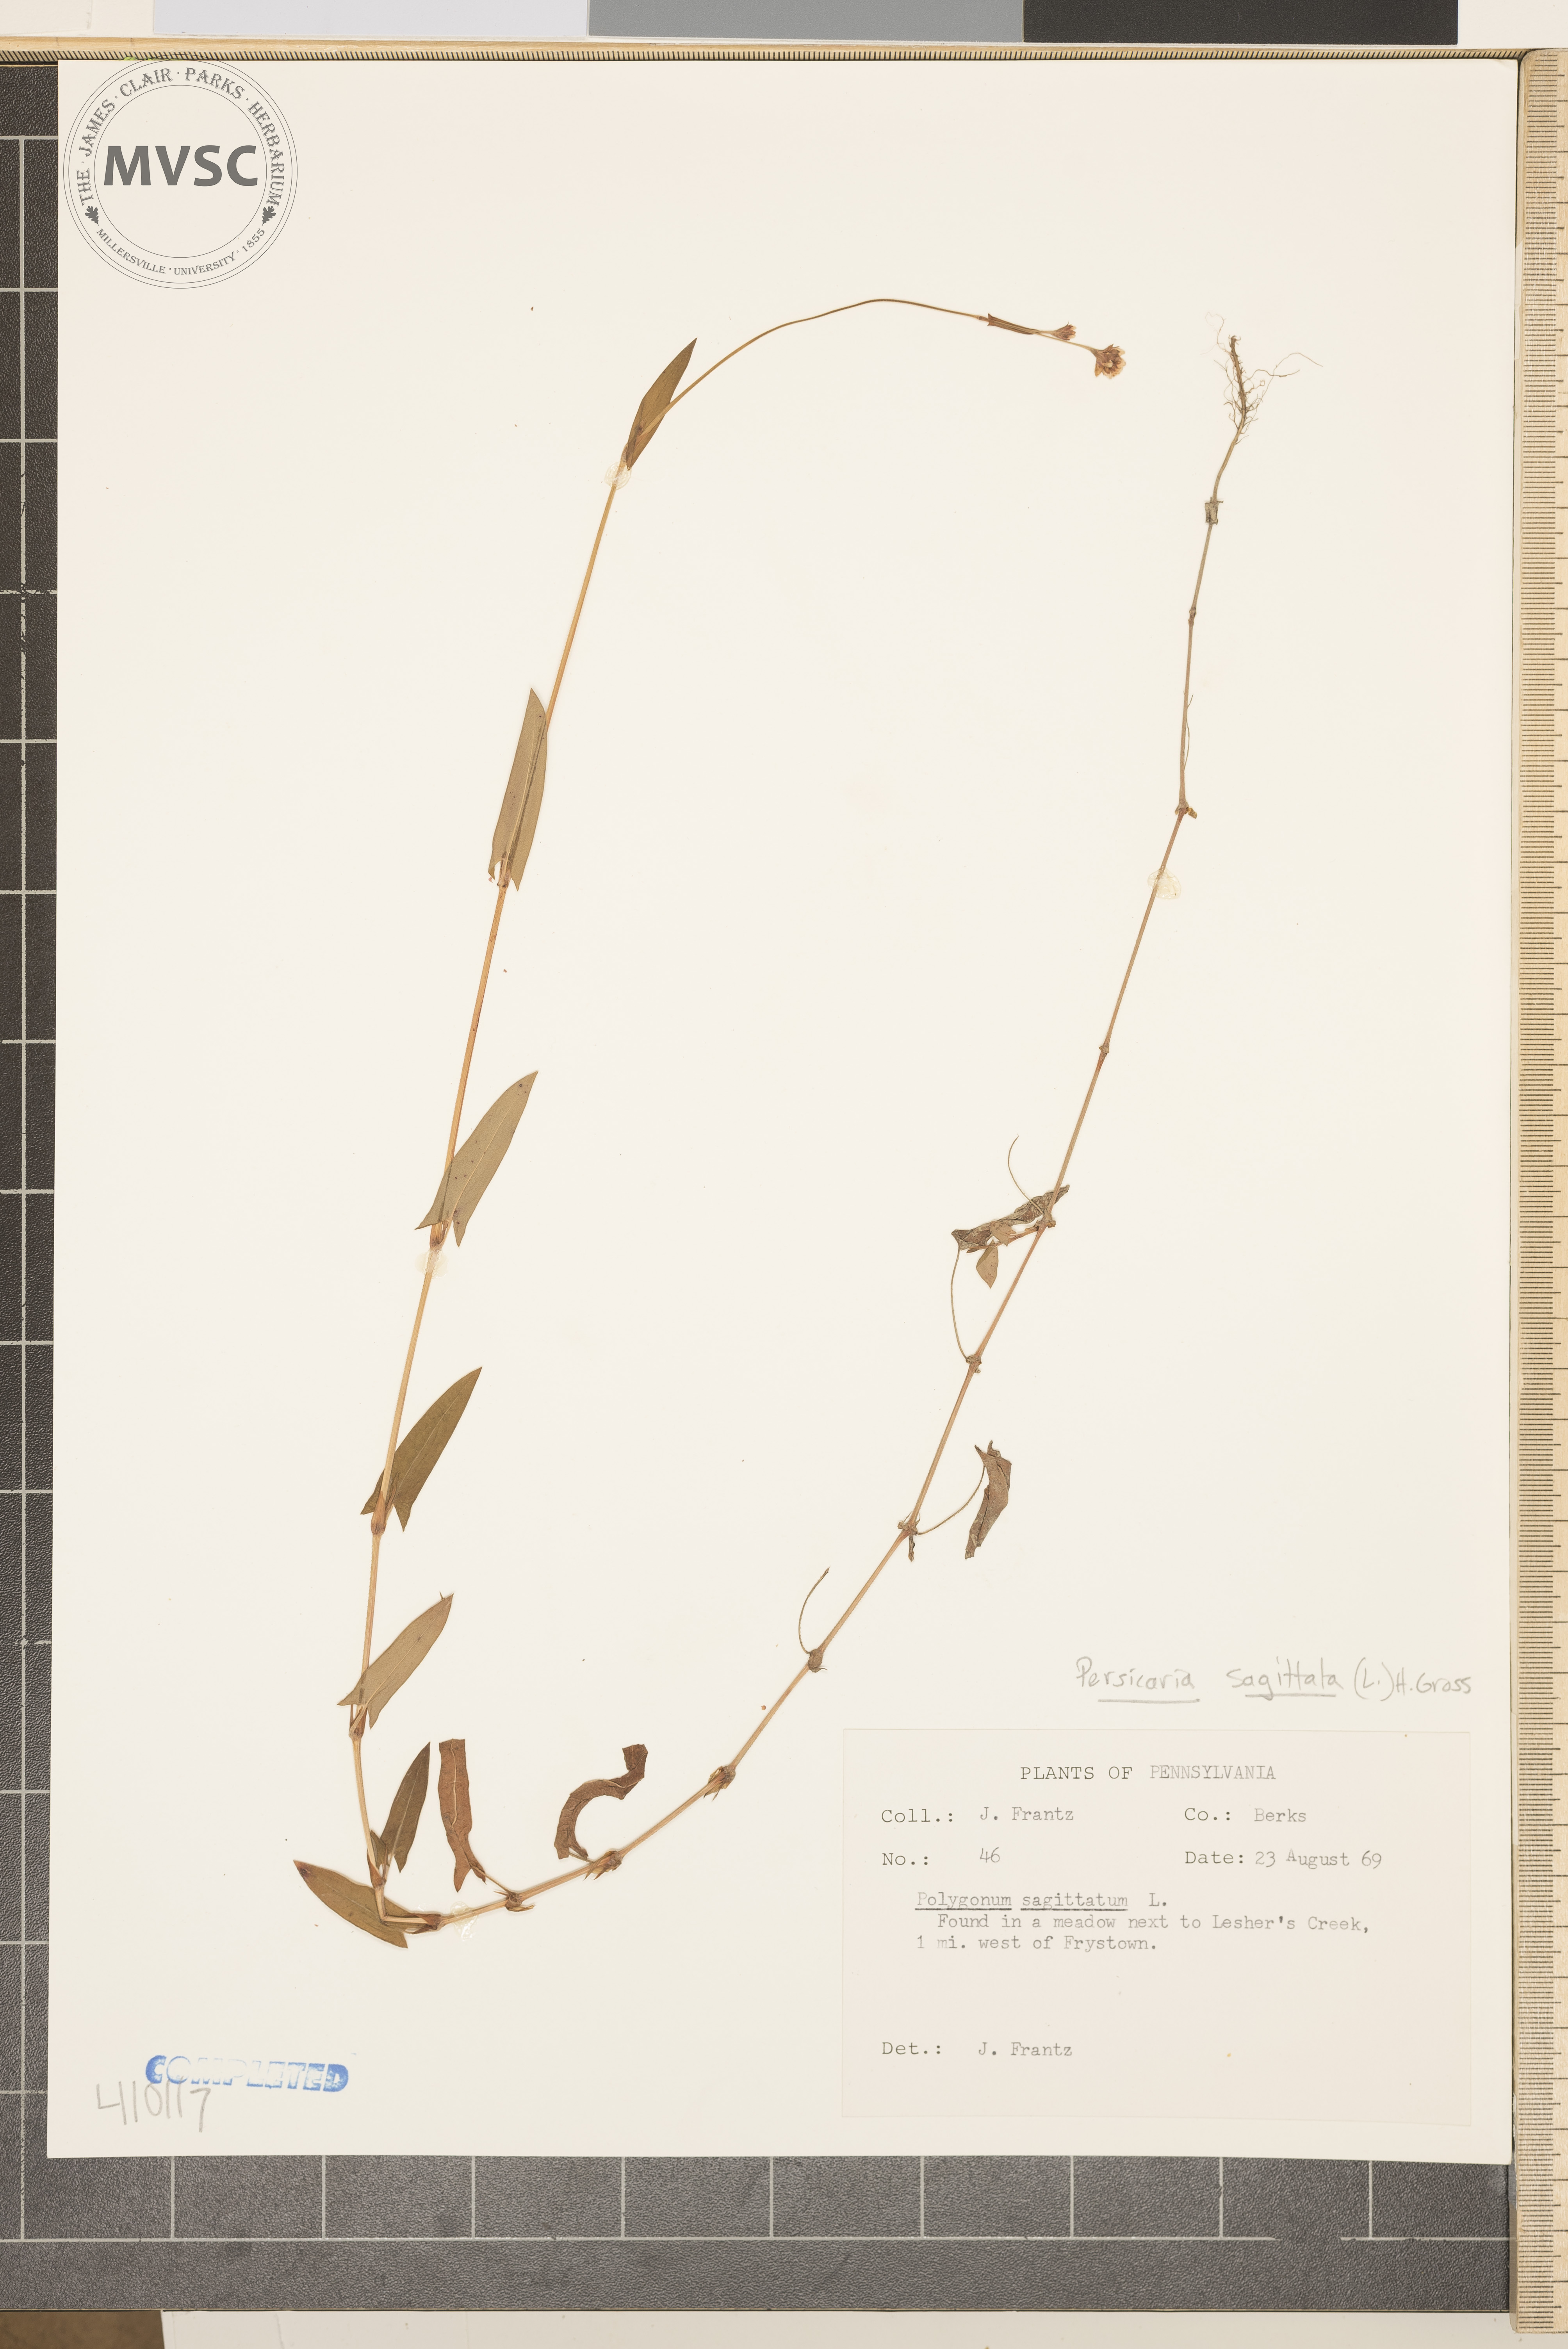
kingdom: Plantae
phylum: Tracheophyta
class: Magnoliopsida
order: Caryophyllales
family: Polygonaceae
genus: Persicaria
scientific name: Persicaria sagittata
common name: American tearthumb
